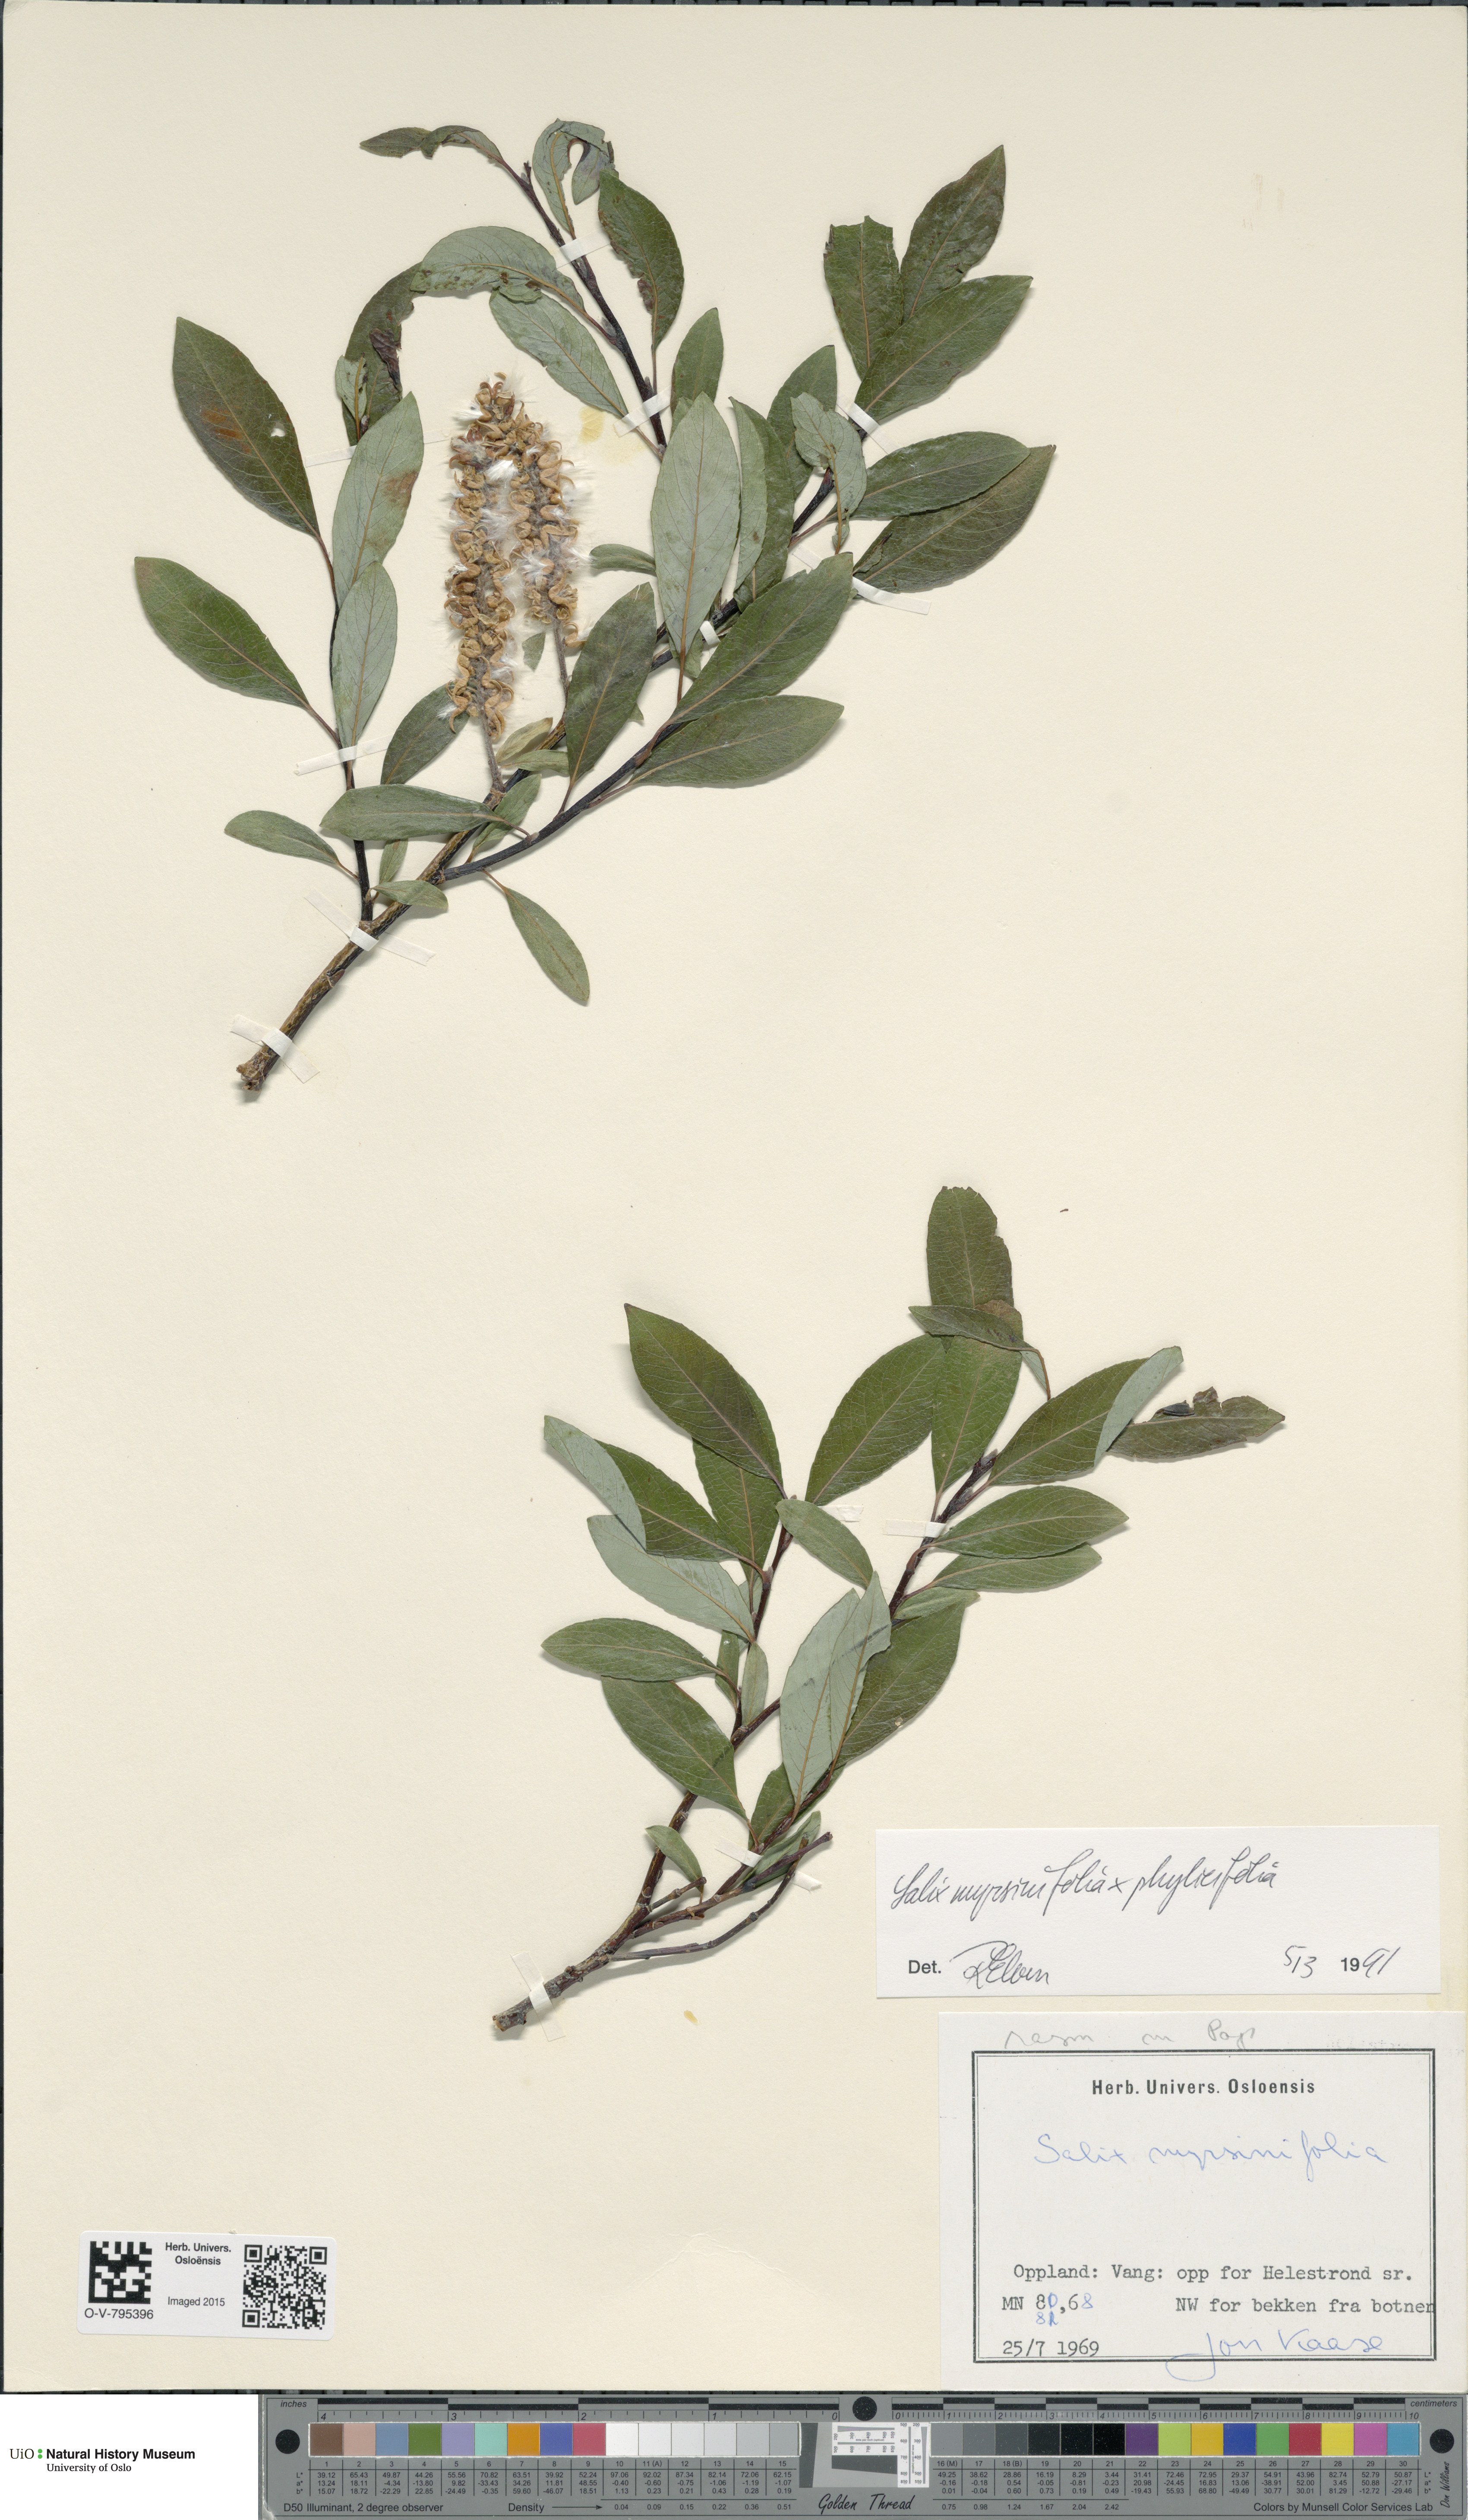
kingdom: Plantae
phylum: Tracheophyta
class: Magnoliopsida
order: Malpighiales
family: Salicaceae
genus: Salix
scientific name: Salix
